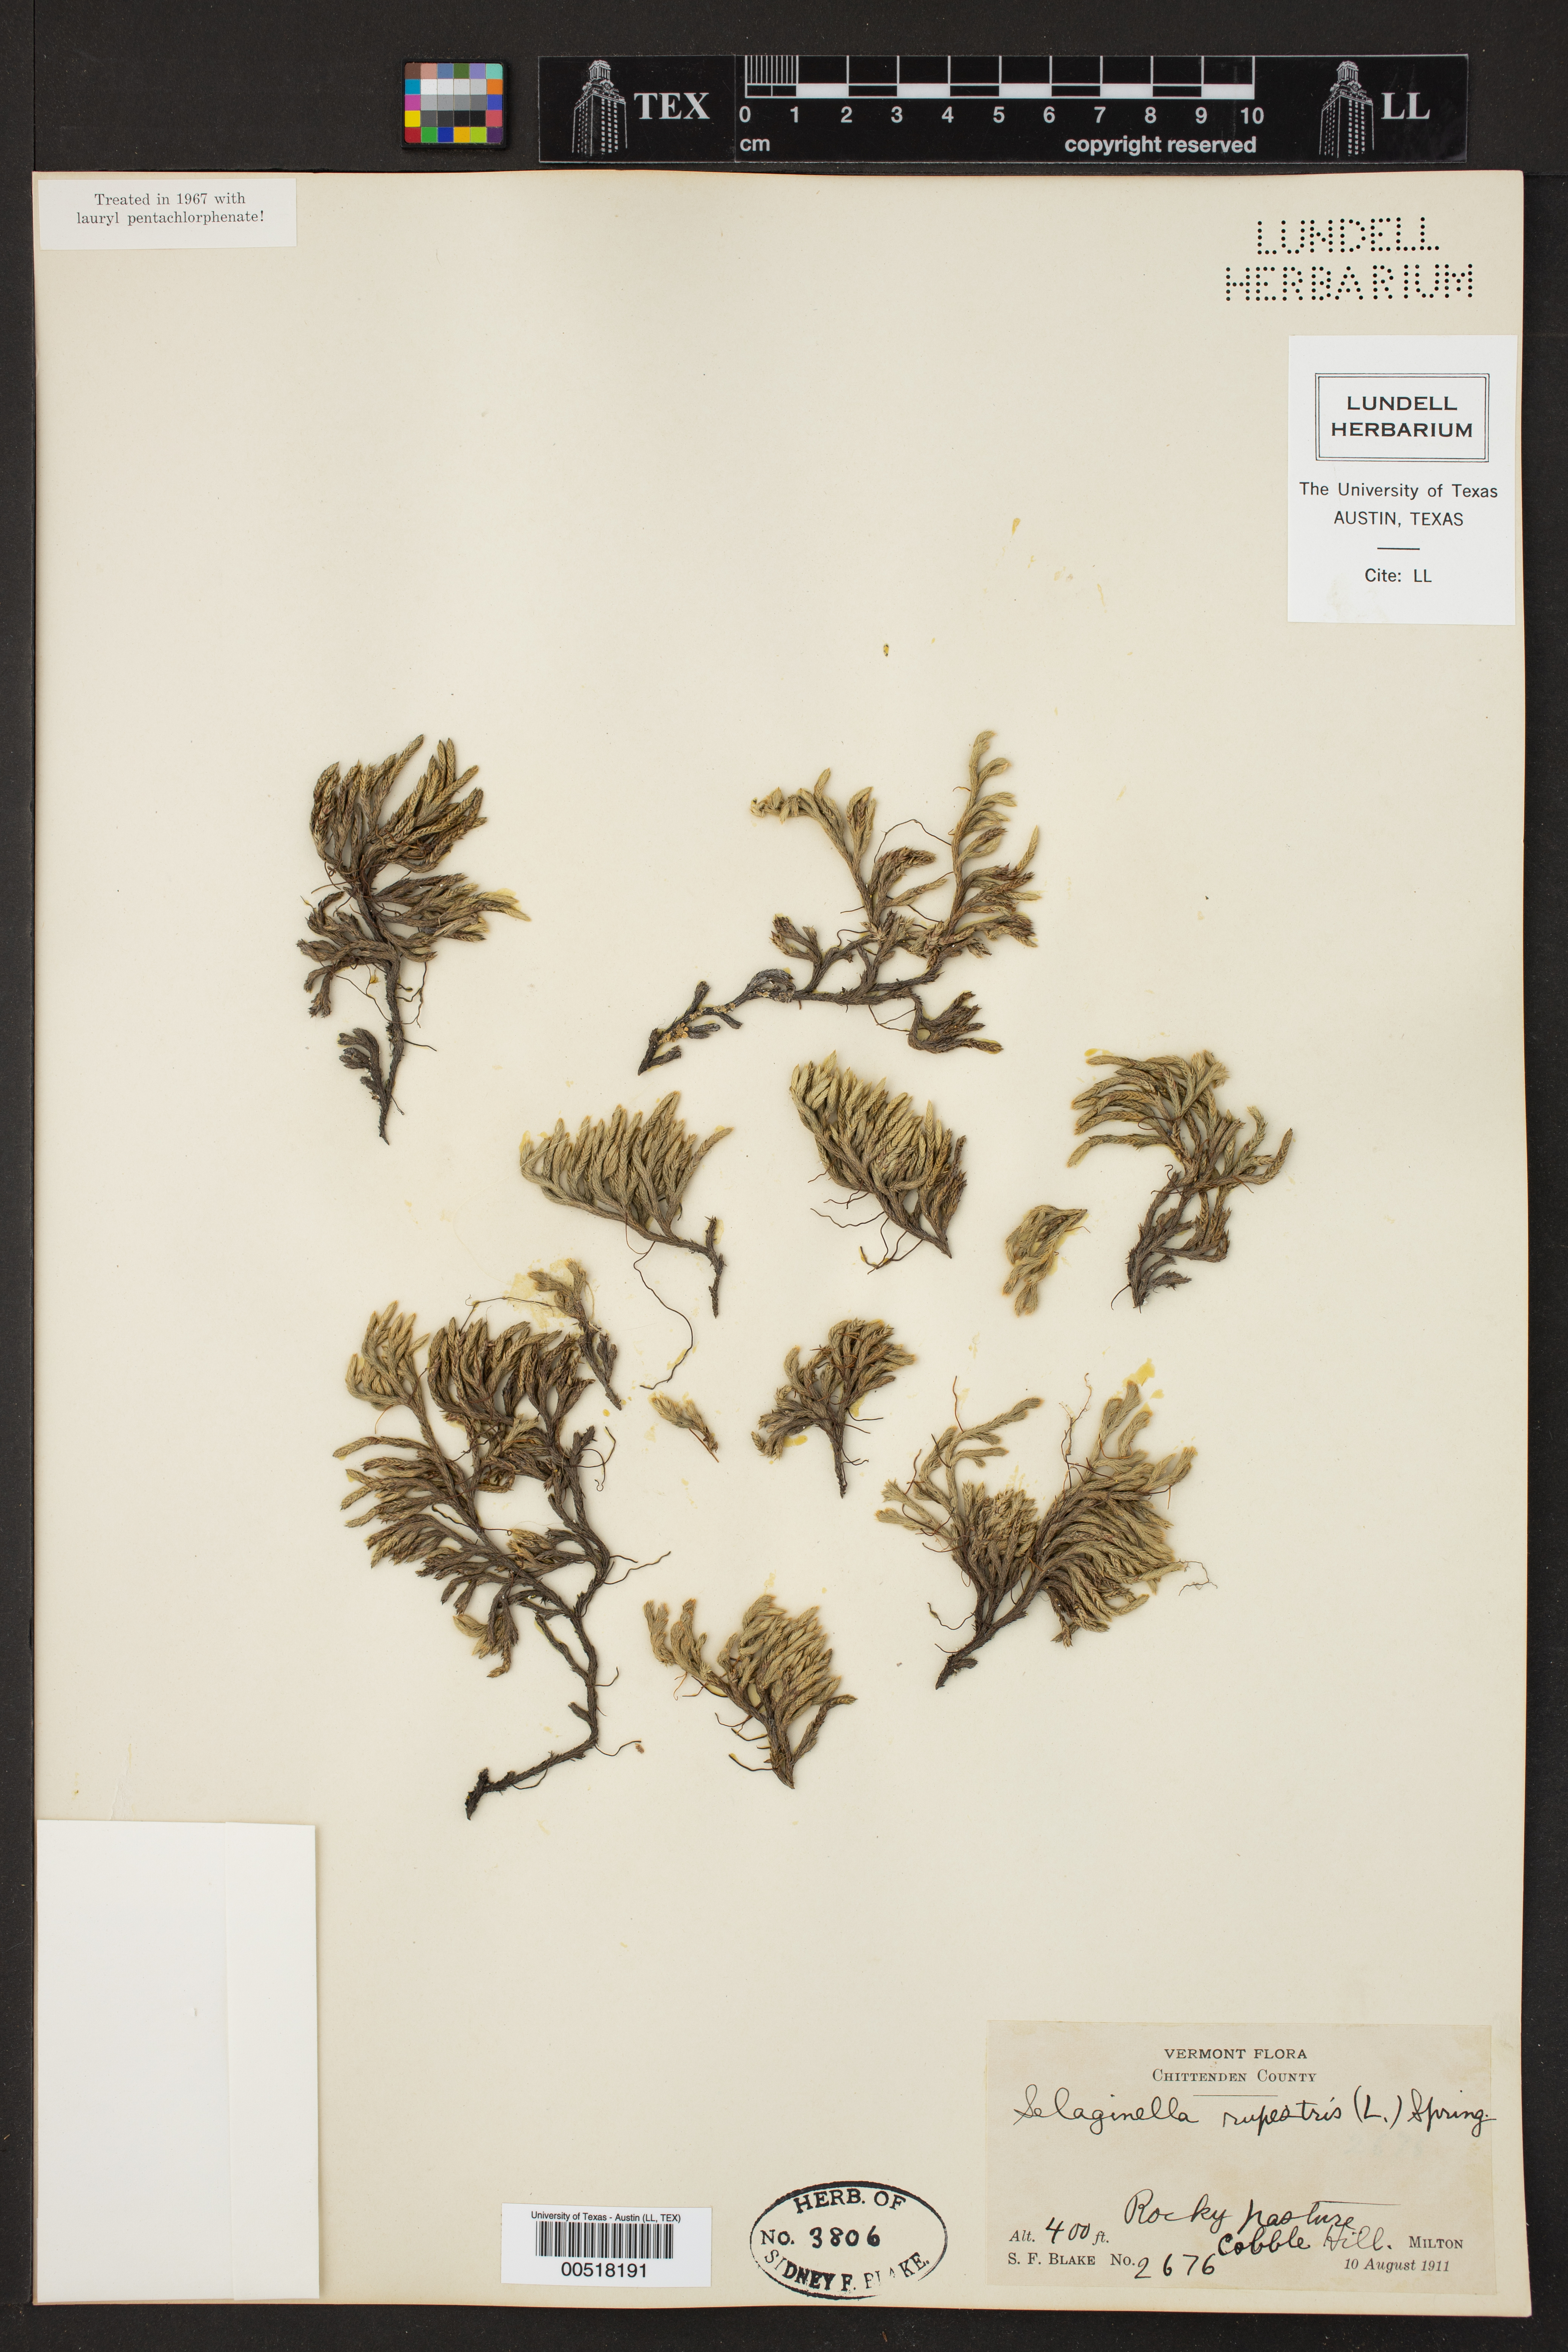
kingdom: Plantae
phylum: Tracheophyta
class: Lycopodiopsida
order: Selaginellales
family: Selaginellaceae
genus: Selaginella
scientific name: Selaginella rupestris
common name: Dwarf spikemoss
